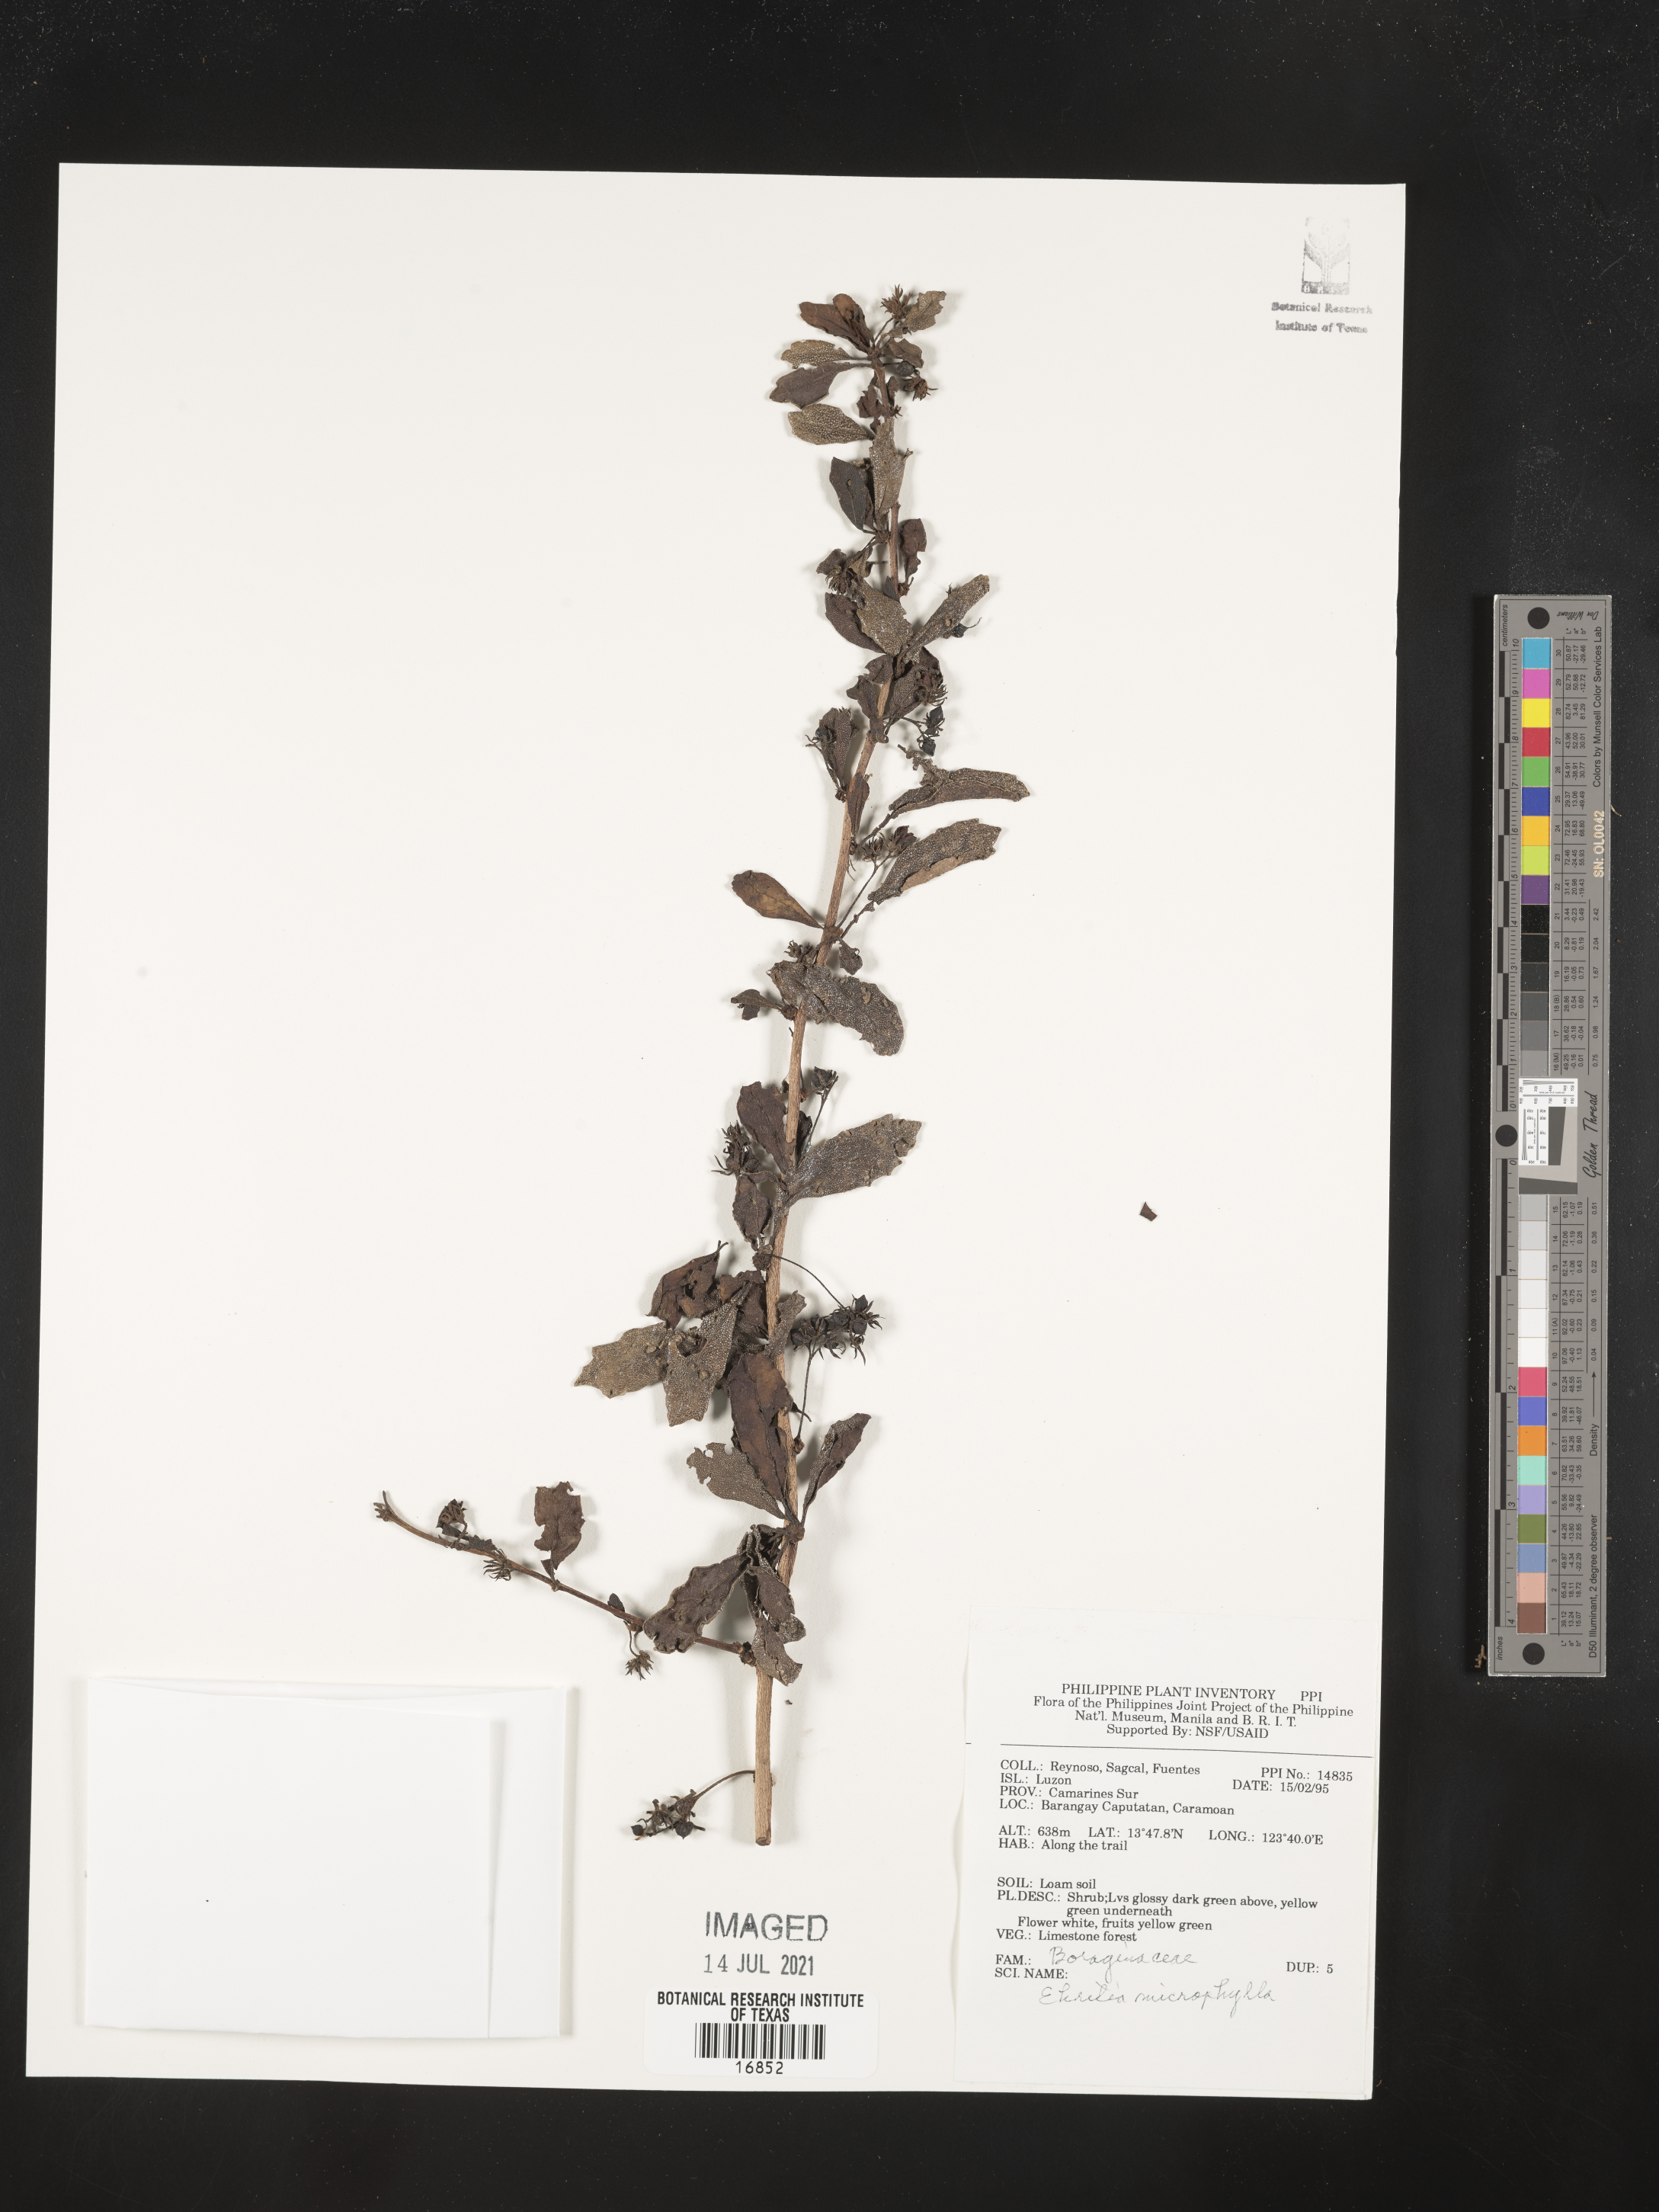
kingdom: Plantae
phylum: Tracheophyta
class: Magnoliopsida
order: Boraginales
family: Ehretiaceae
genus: Ehretia
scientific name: Ehretia microphylla
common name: Fukien-tea
